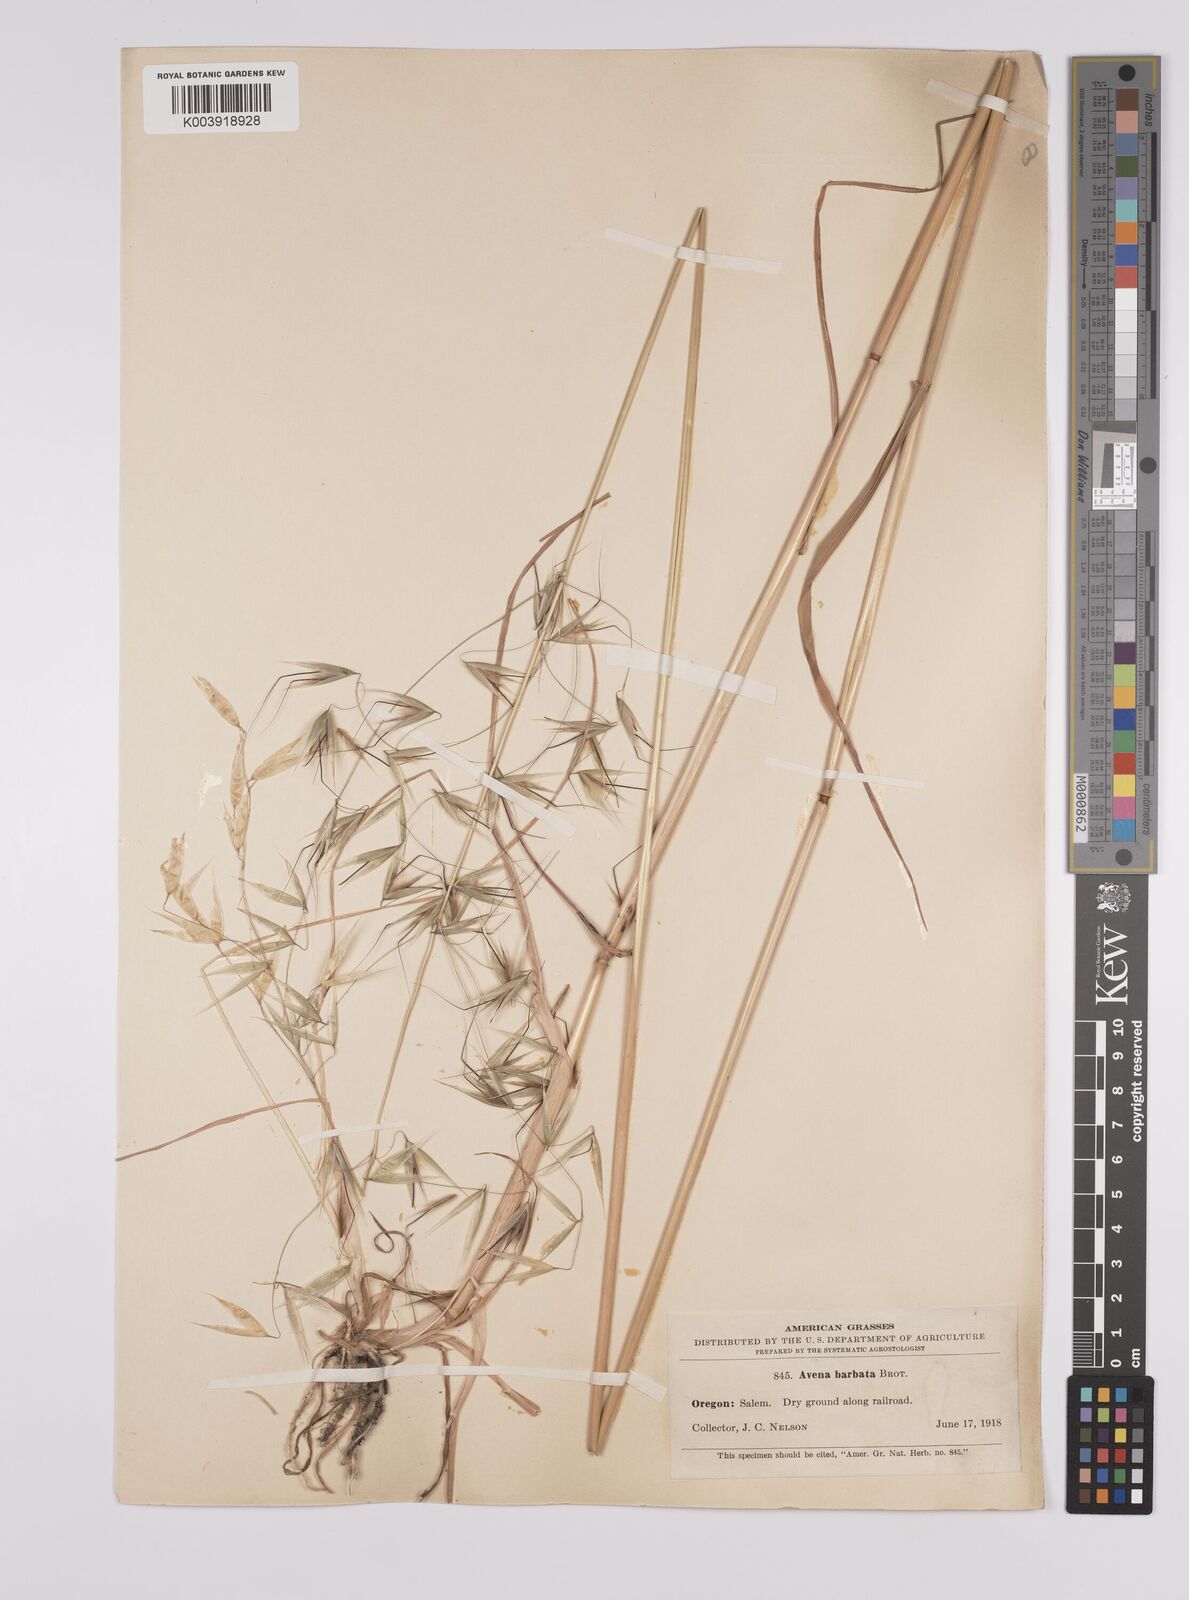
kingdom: Plantae
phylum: Tracheophyta
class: Liliopsida
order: Poales
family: Poaceae
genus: Avena
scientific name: Avena
